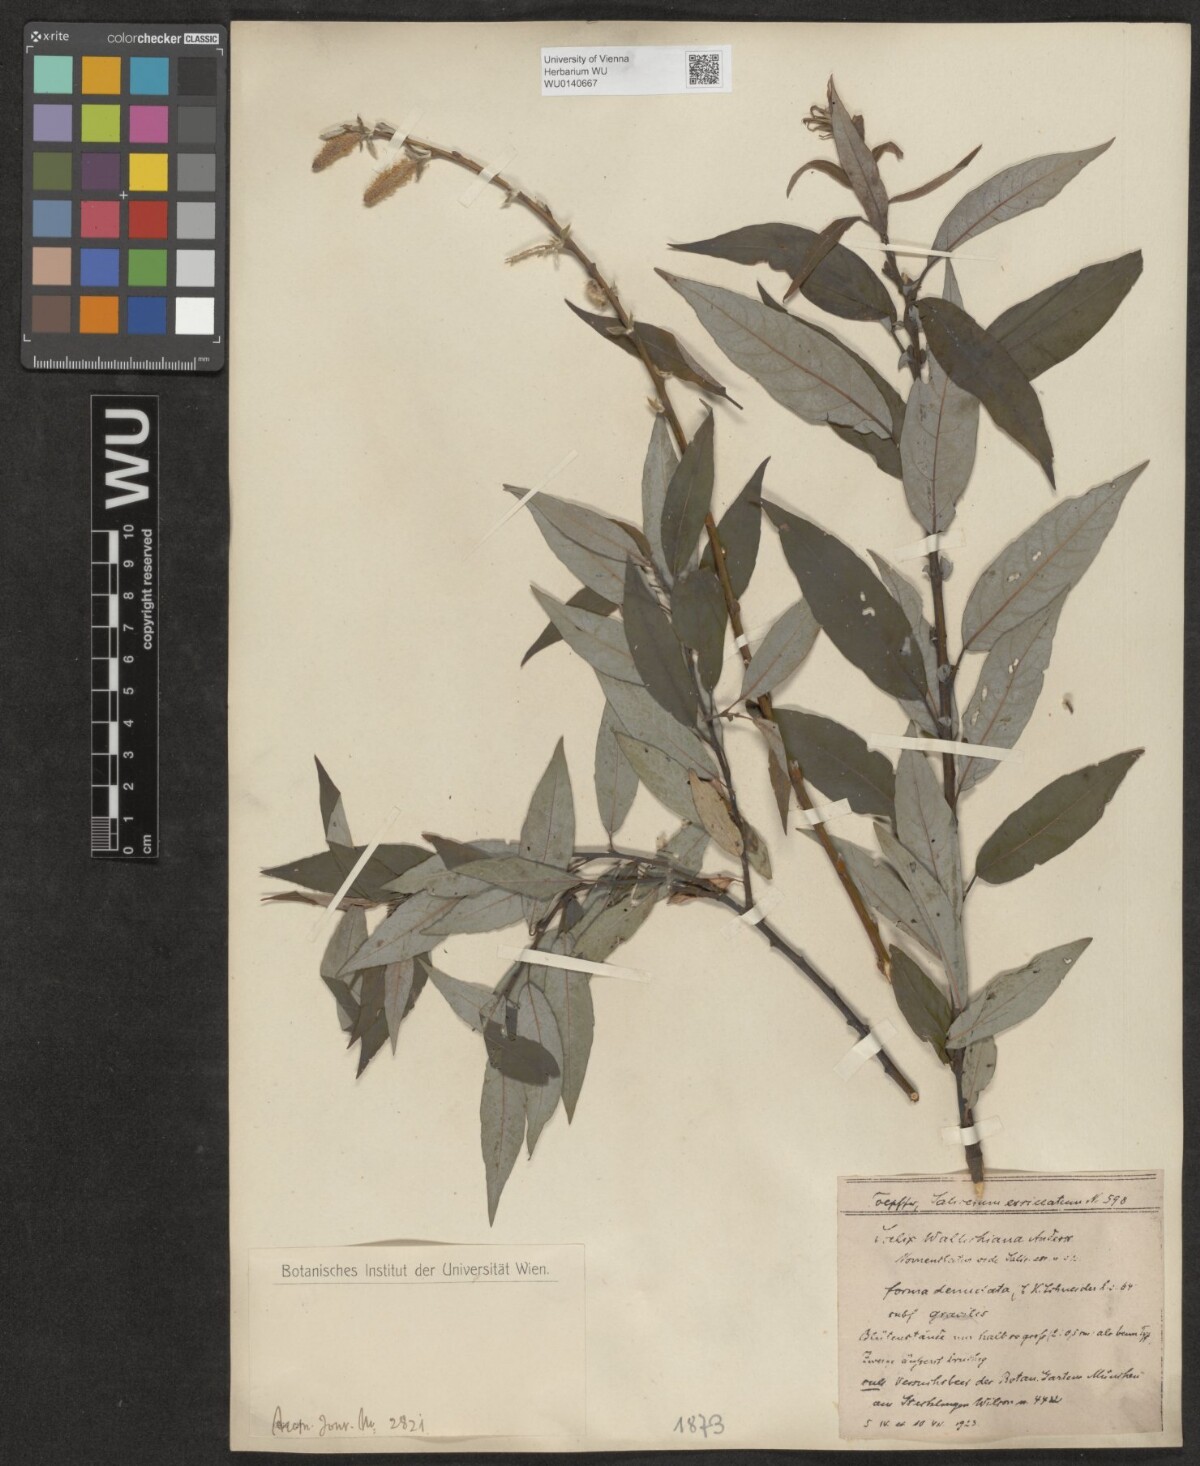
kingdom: Plantae
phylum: Tracheophyta
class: Magnoliopsida
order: Malpighiales
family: Salicaceae
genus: Salix
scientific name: Salix disperma
